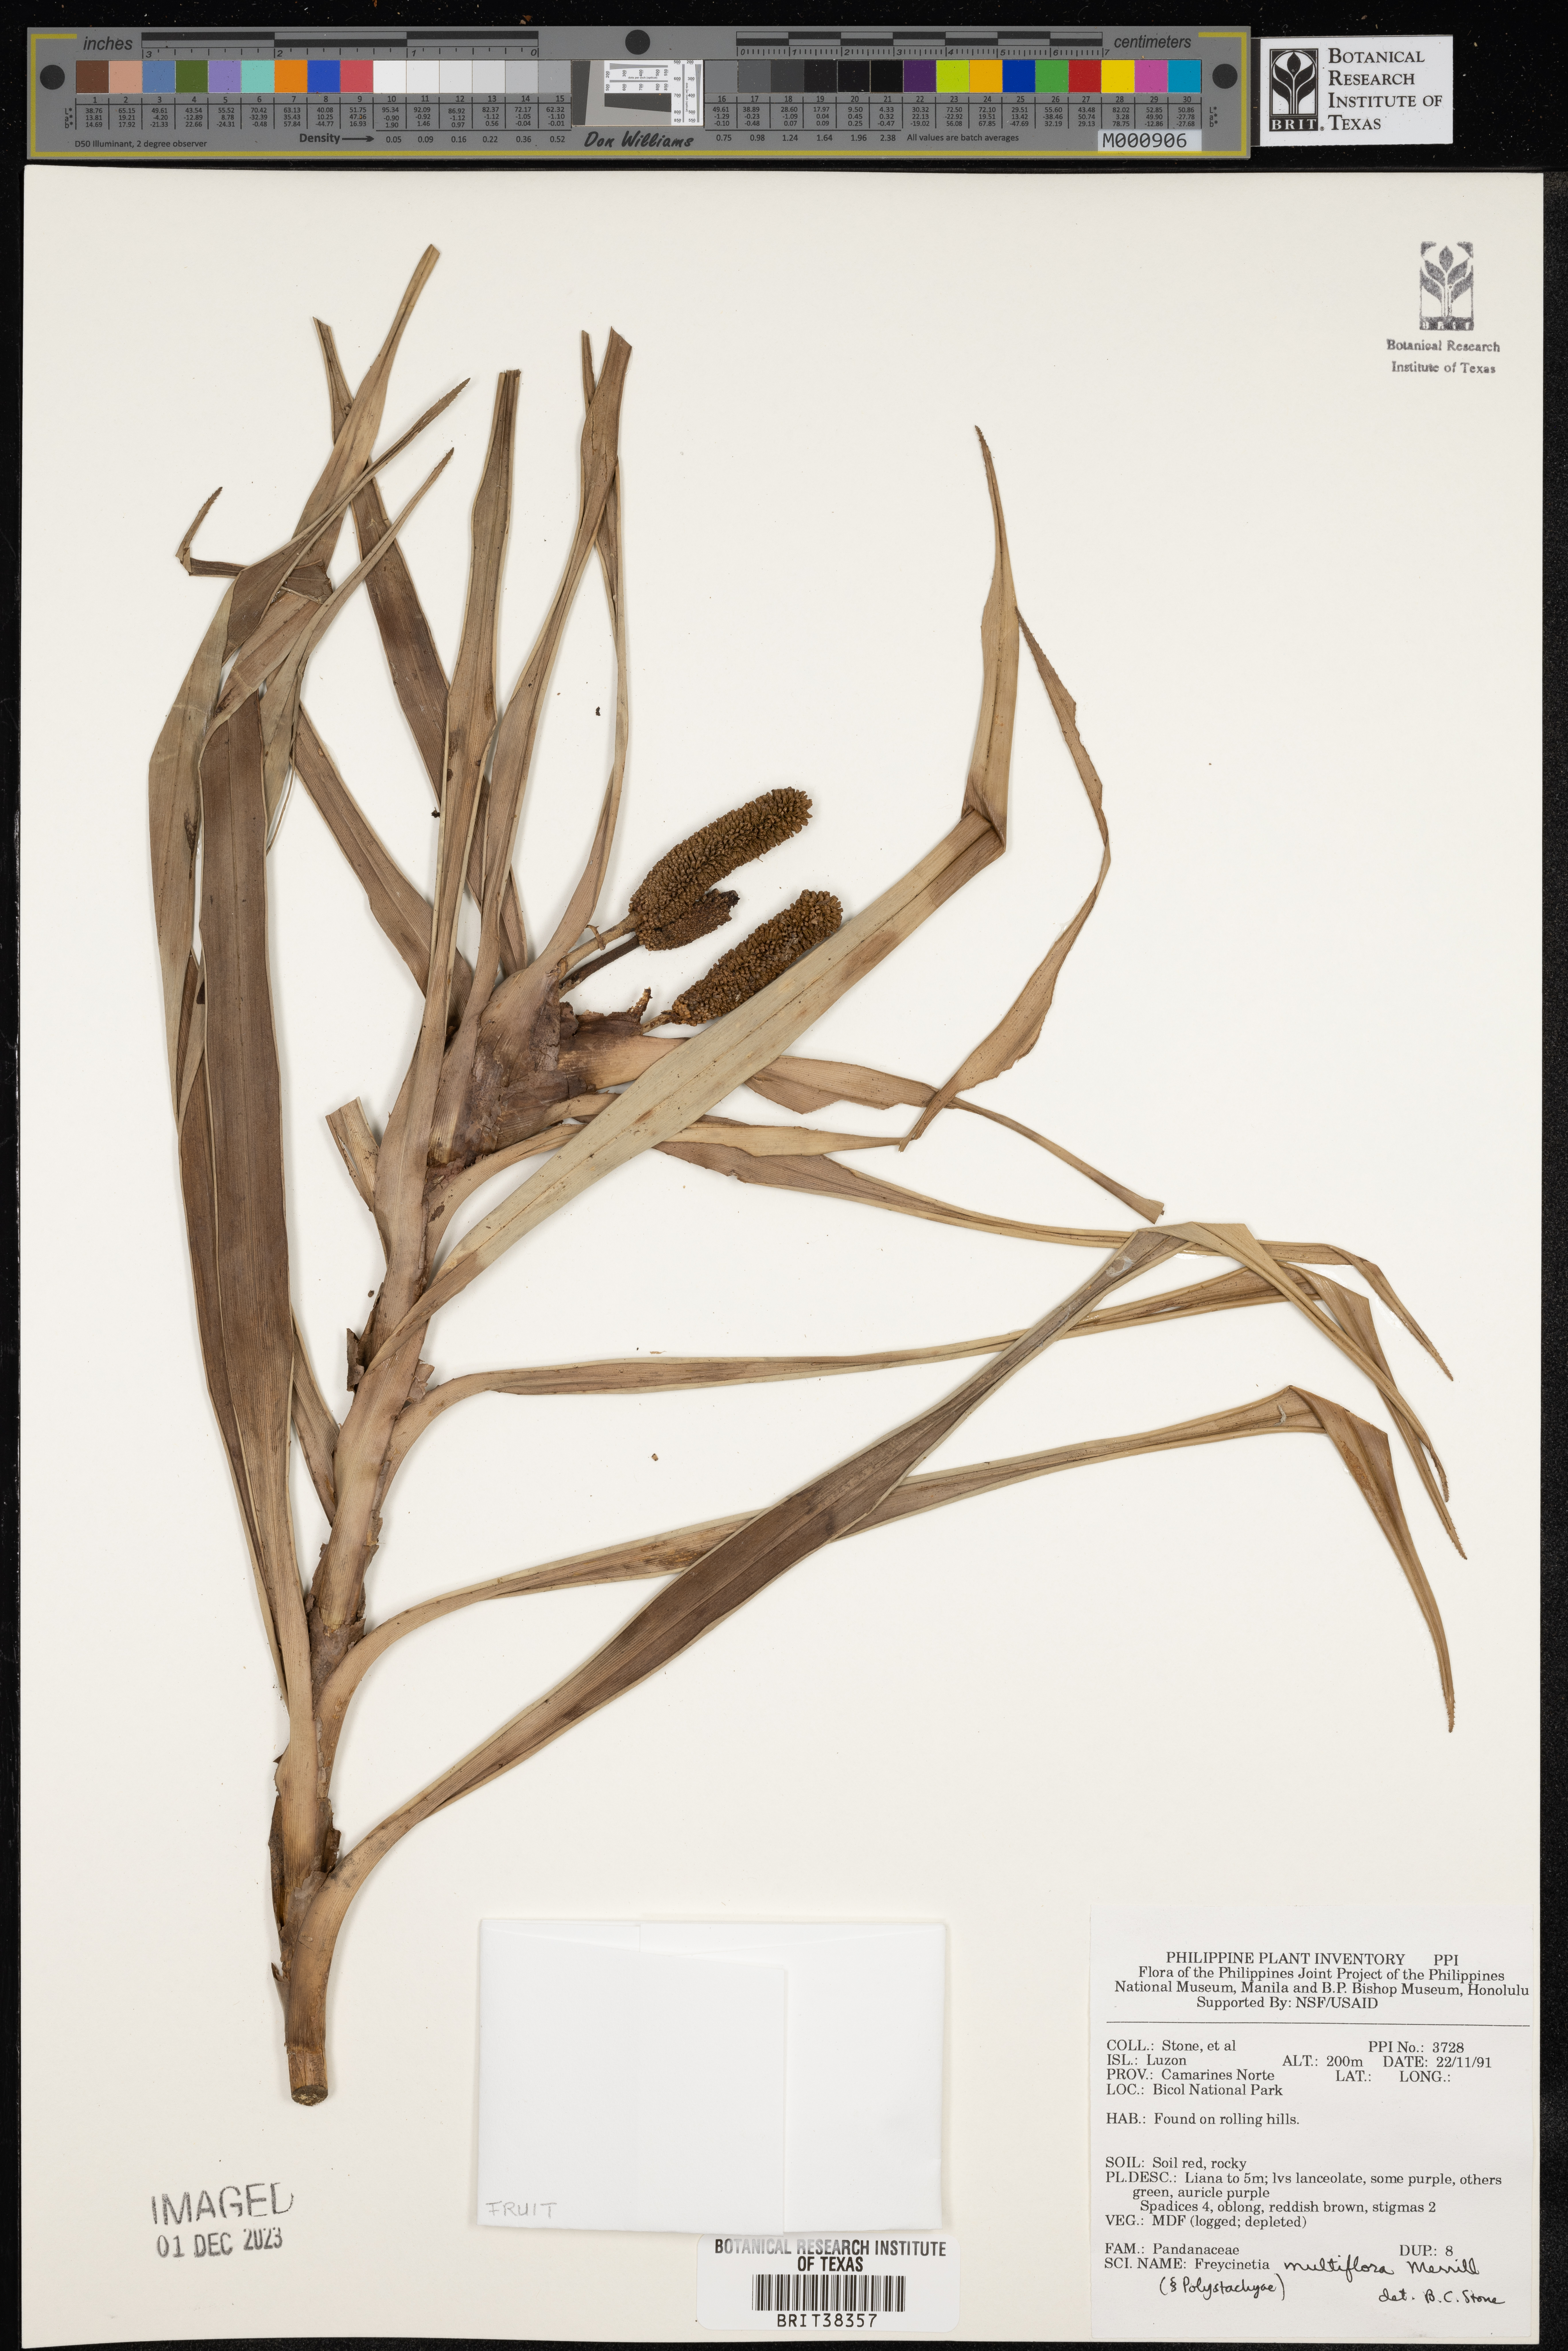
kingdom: Plantae
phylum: Tracheophyta
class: Liliopsida
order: Pandanales
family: Pandanaceae
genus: Freycinetia
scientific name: Freycinetia multiflora
